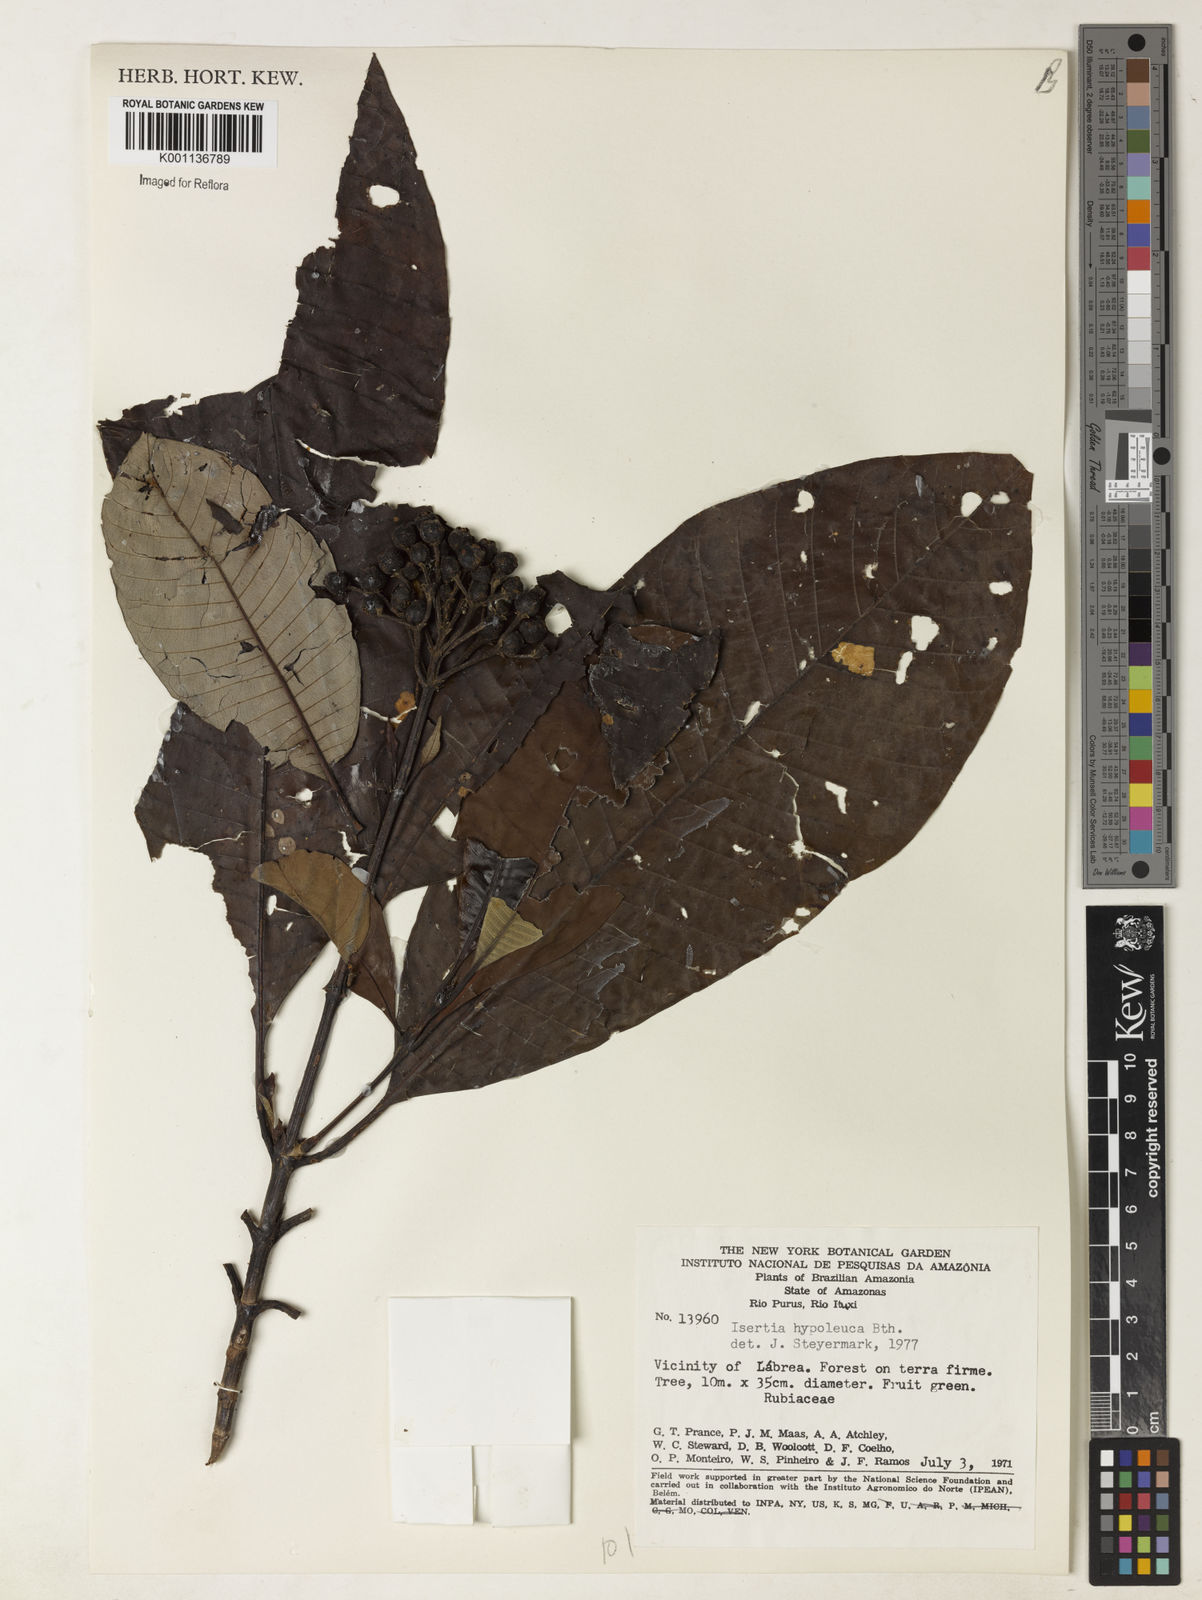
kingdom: Plantae
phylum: Tracheophyta
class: Magnoliopsida
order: Gentianales
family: Rubiaceae
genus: Isertia
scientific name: Isertia hypoleuca
